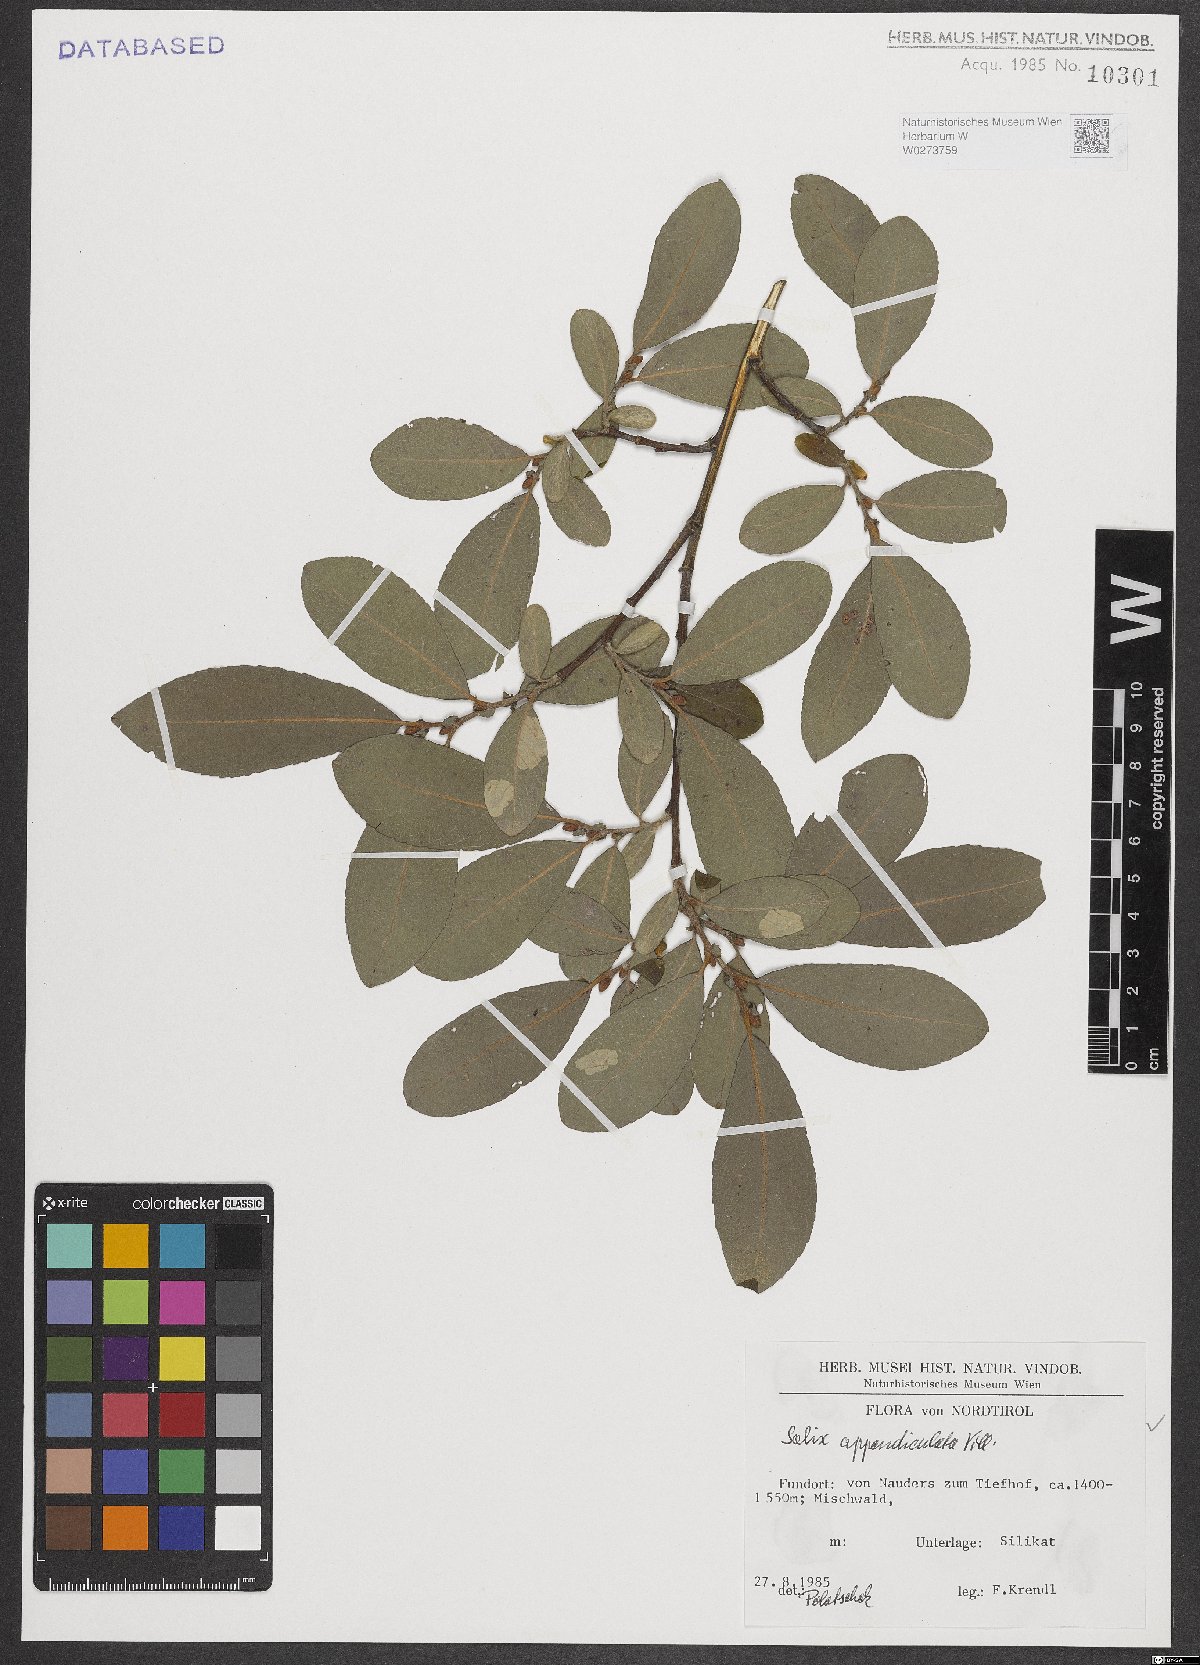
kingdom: Plantae
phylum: Tracheophyta
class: Magnoliopsida
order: Malpighiales
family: Salicaceae
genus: Salix
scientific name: Salix appendiculata
